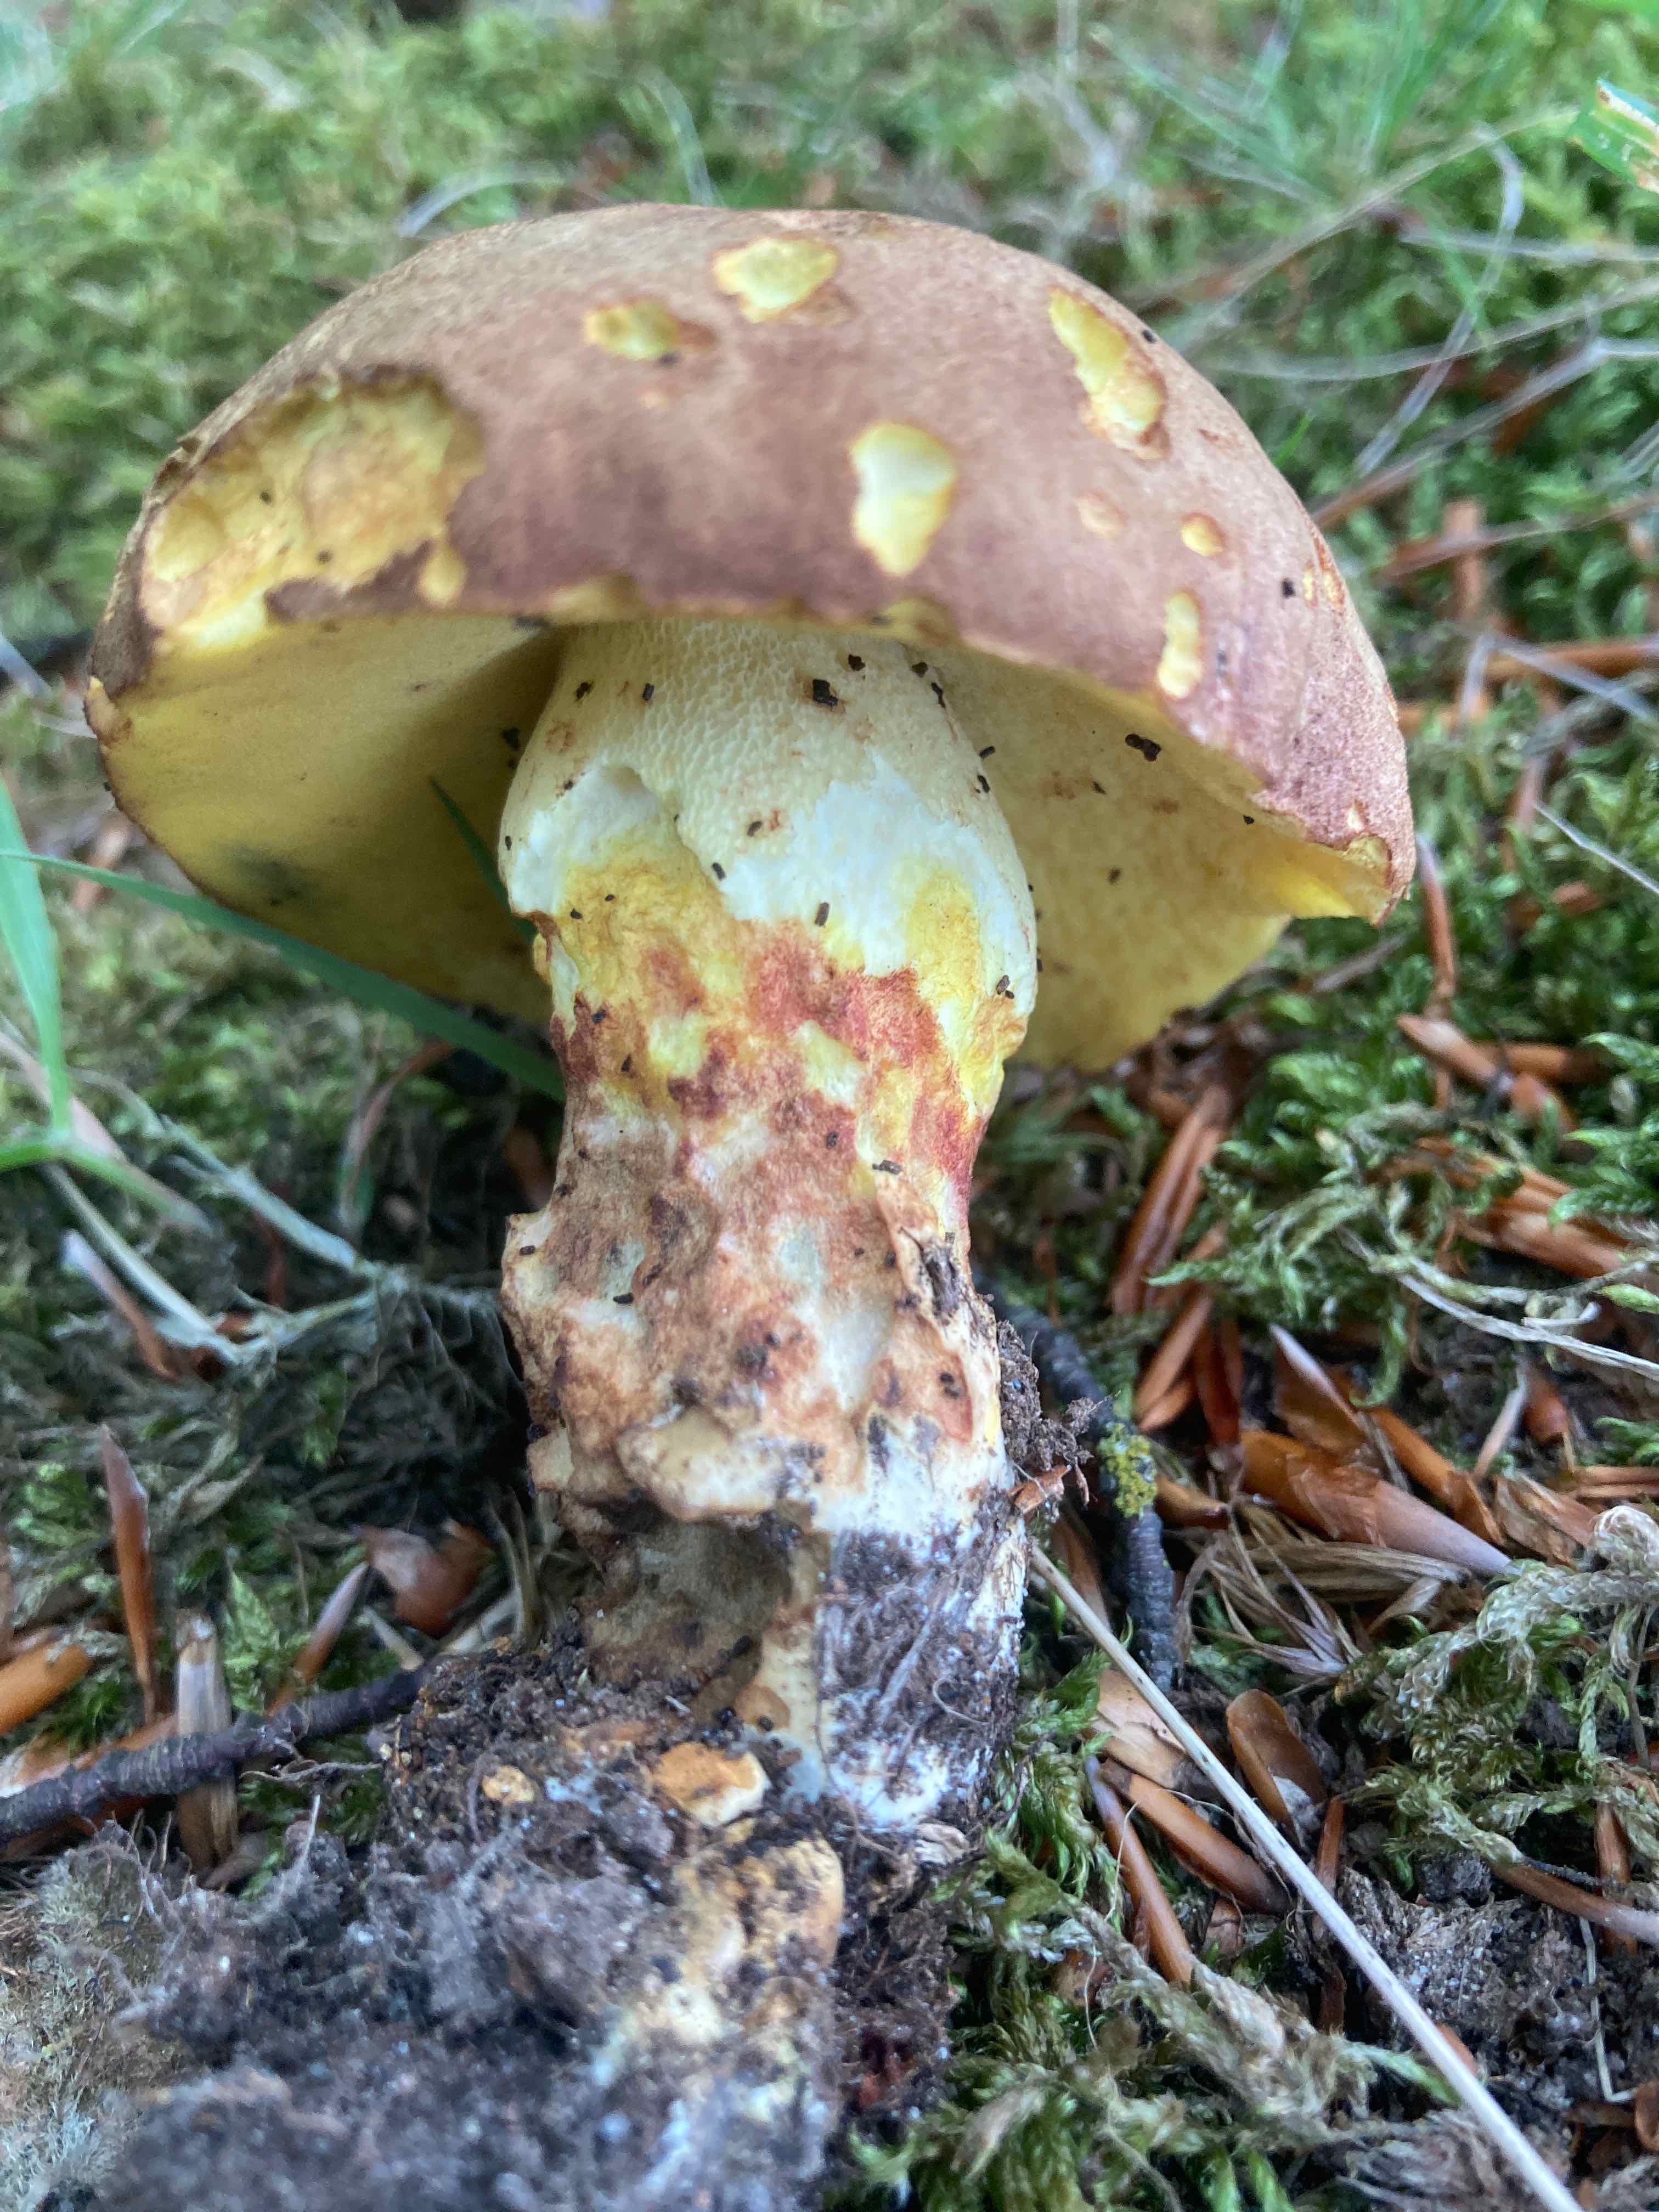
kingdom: Fungi
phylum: Basidiomycota
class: Agaricomycetes
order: Boletales
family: Boletaceae
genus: Butyriboletus
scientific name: Butyriboletus appendiculatus
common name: tenstokket rørhat
